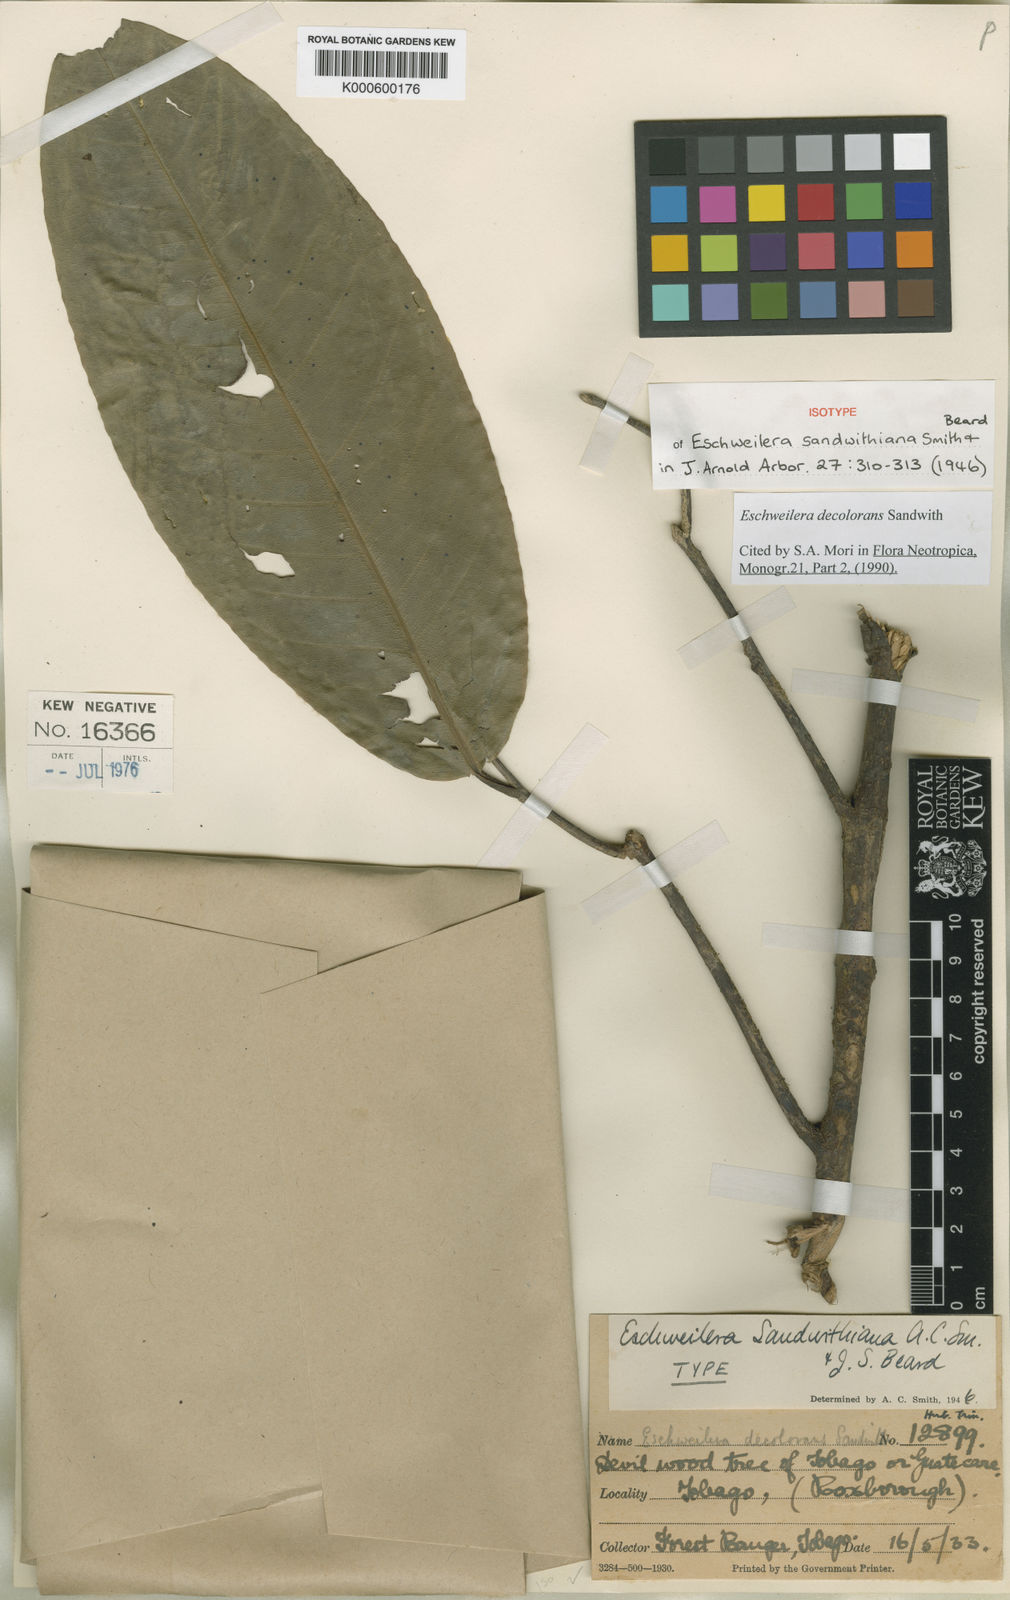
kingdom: Plantae
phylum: Tracheophyta
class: Magnoliopsida
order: Ericales
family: Lecythidaceae
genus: Eschweilera
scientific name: Eschweilera decolorans
